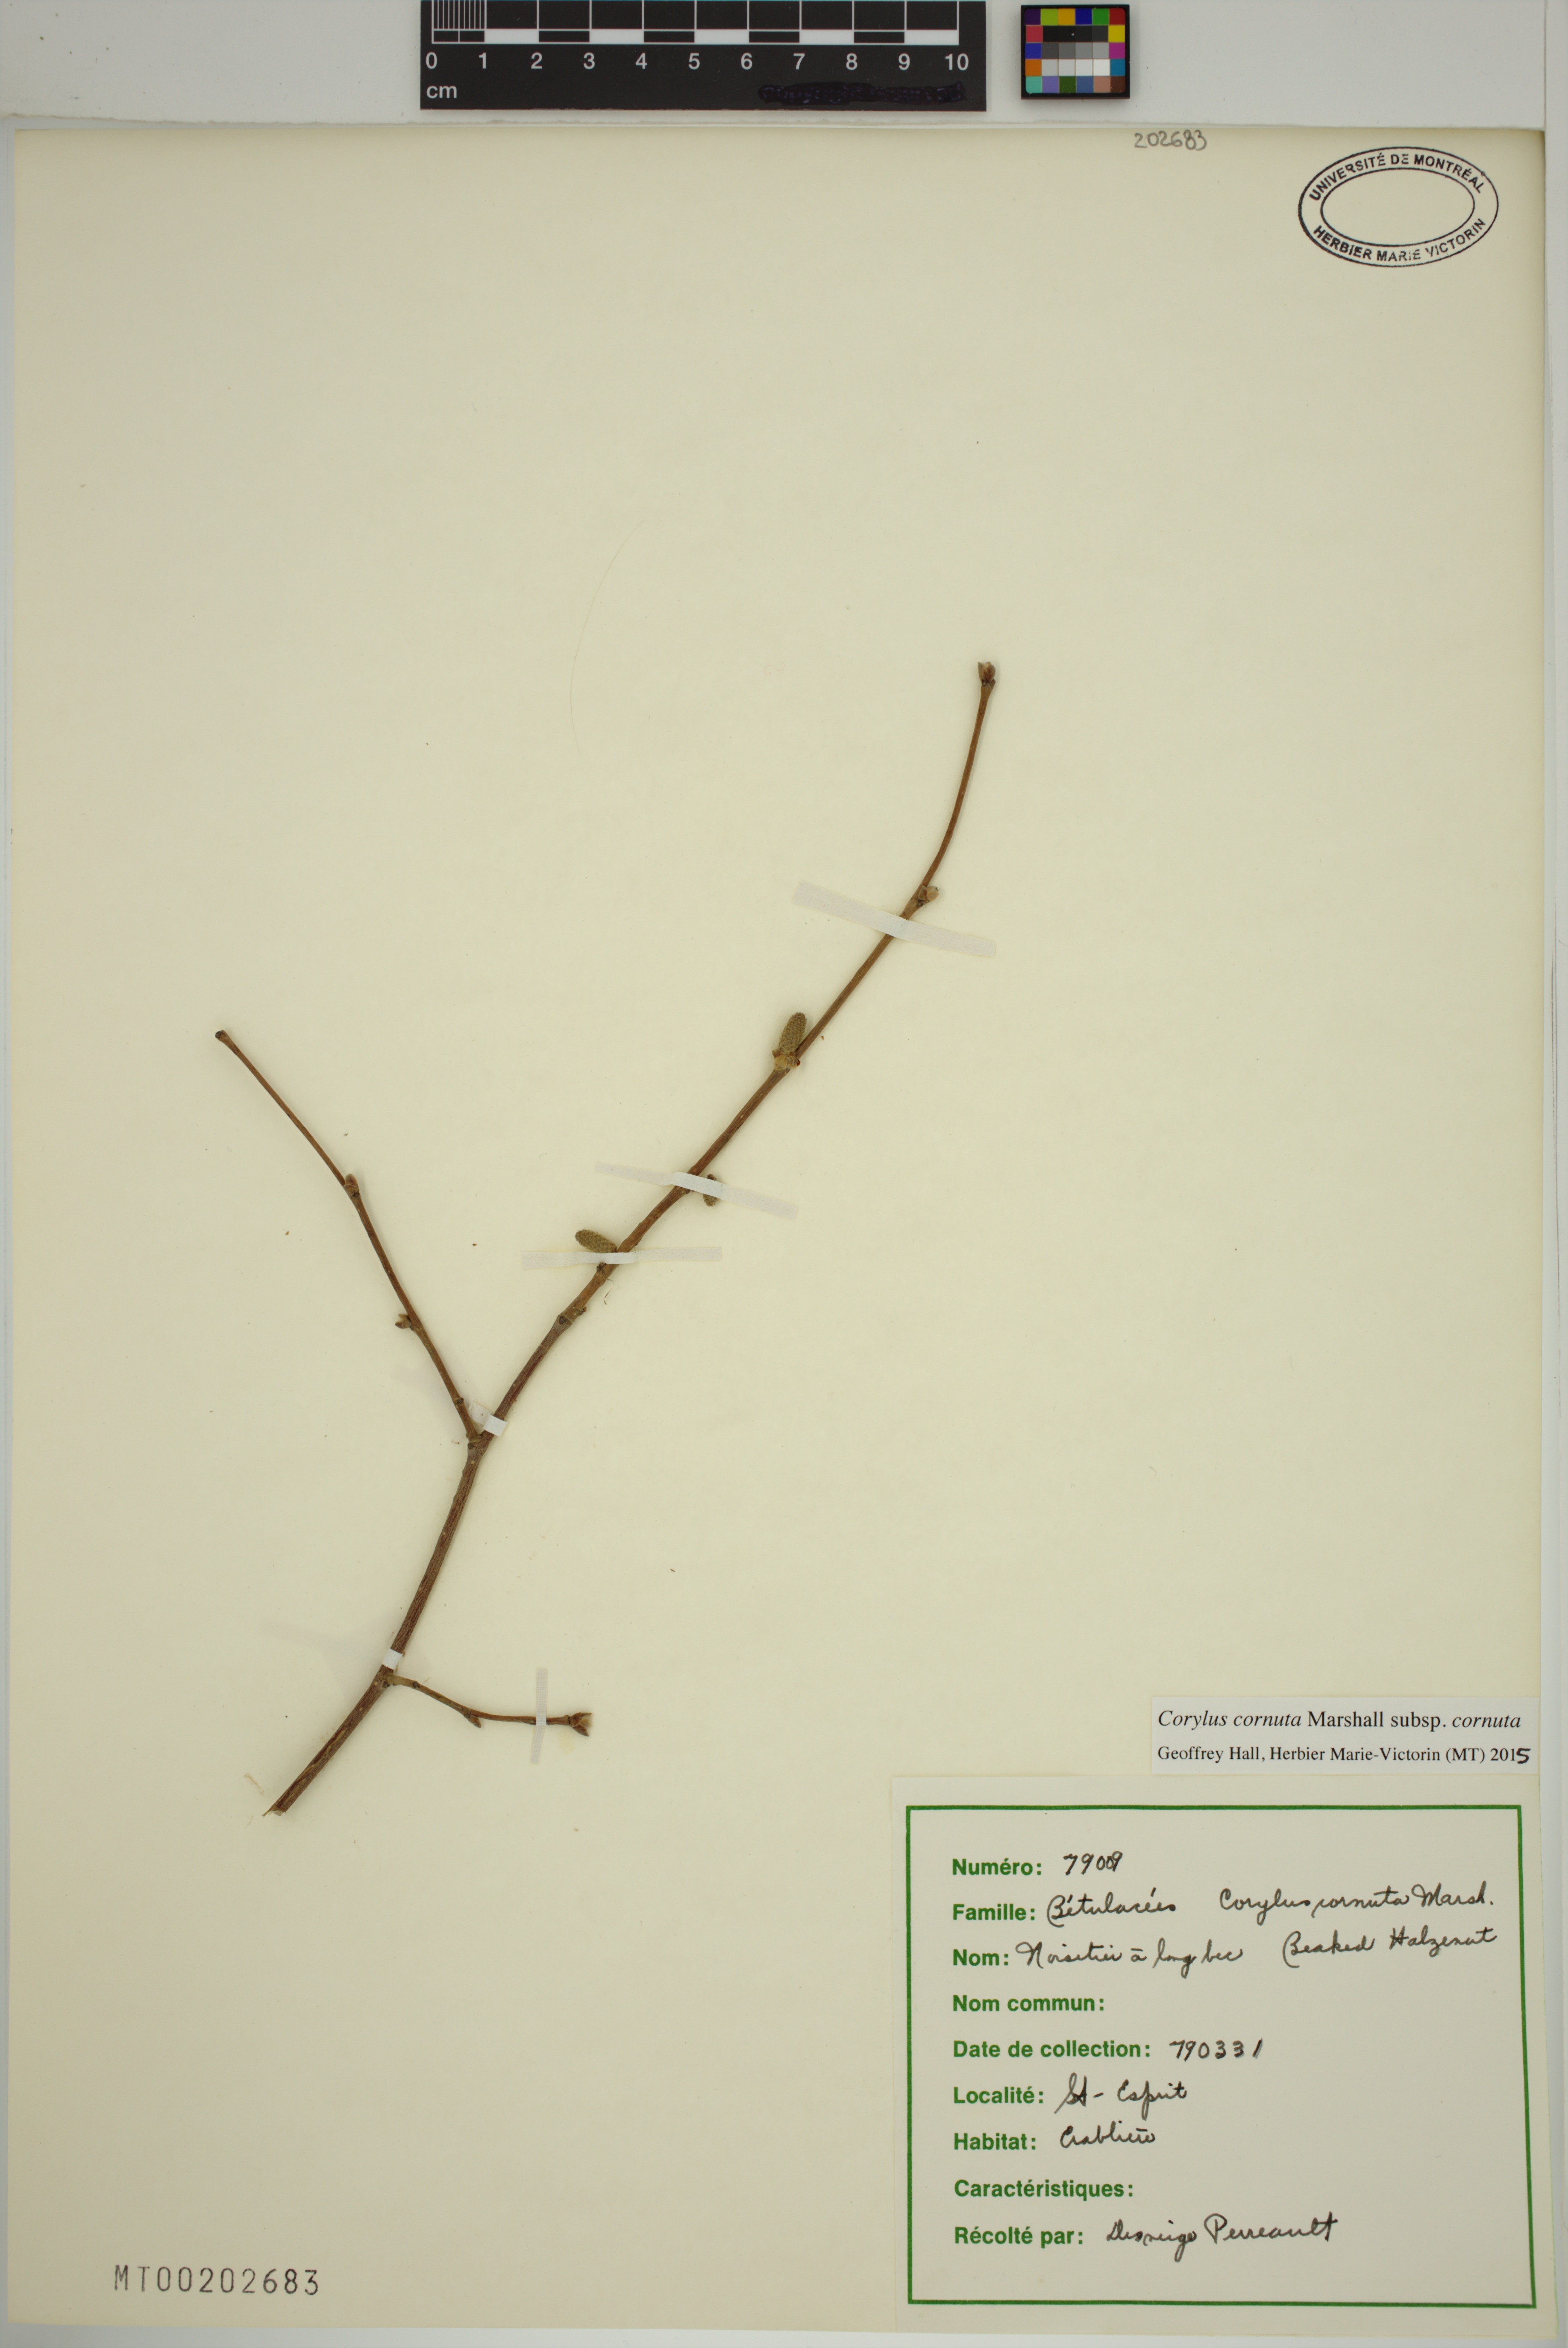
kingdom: Plantae
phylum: Tracheophyta
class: Magnoliopsida
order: Fagales
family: Betulaceae
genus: Corylus
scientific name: Corylus cornuta
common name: Beaked hazel
